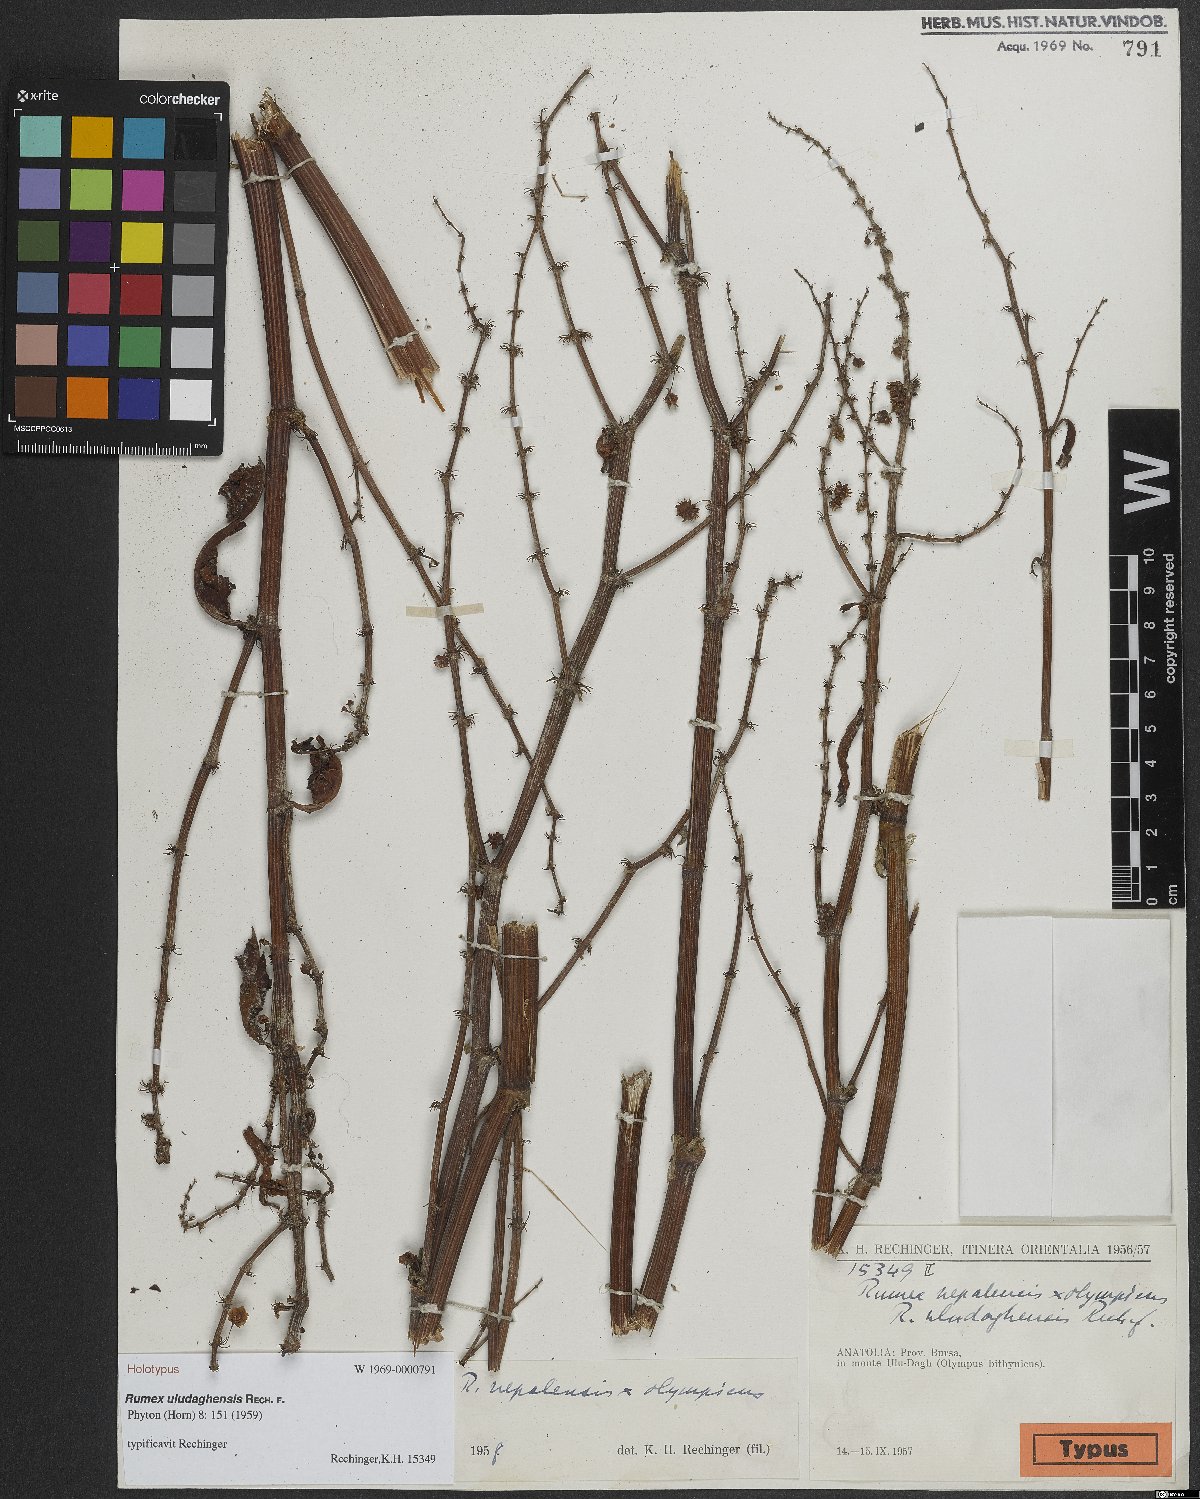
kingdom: Plantae
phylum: Tracheophyta
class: Magnoliopsida
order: Caryophyllales
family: Polygonaceae
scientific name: Polygonaceae
